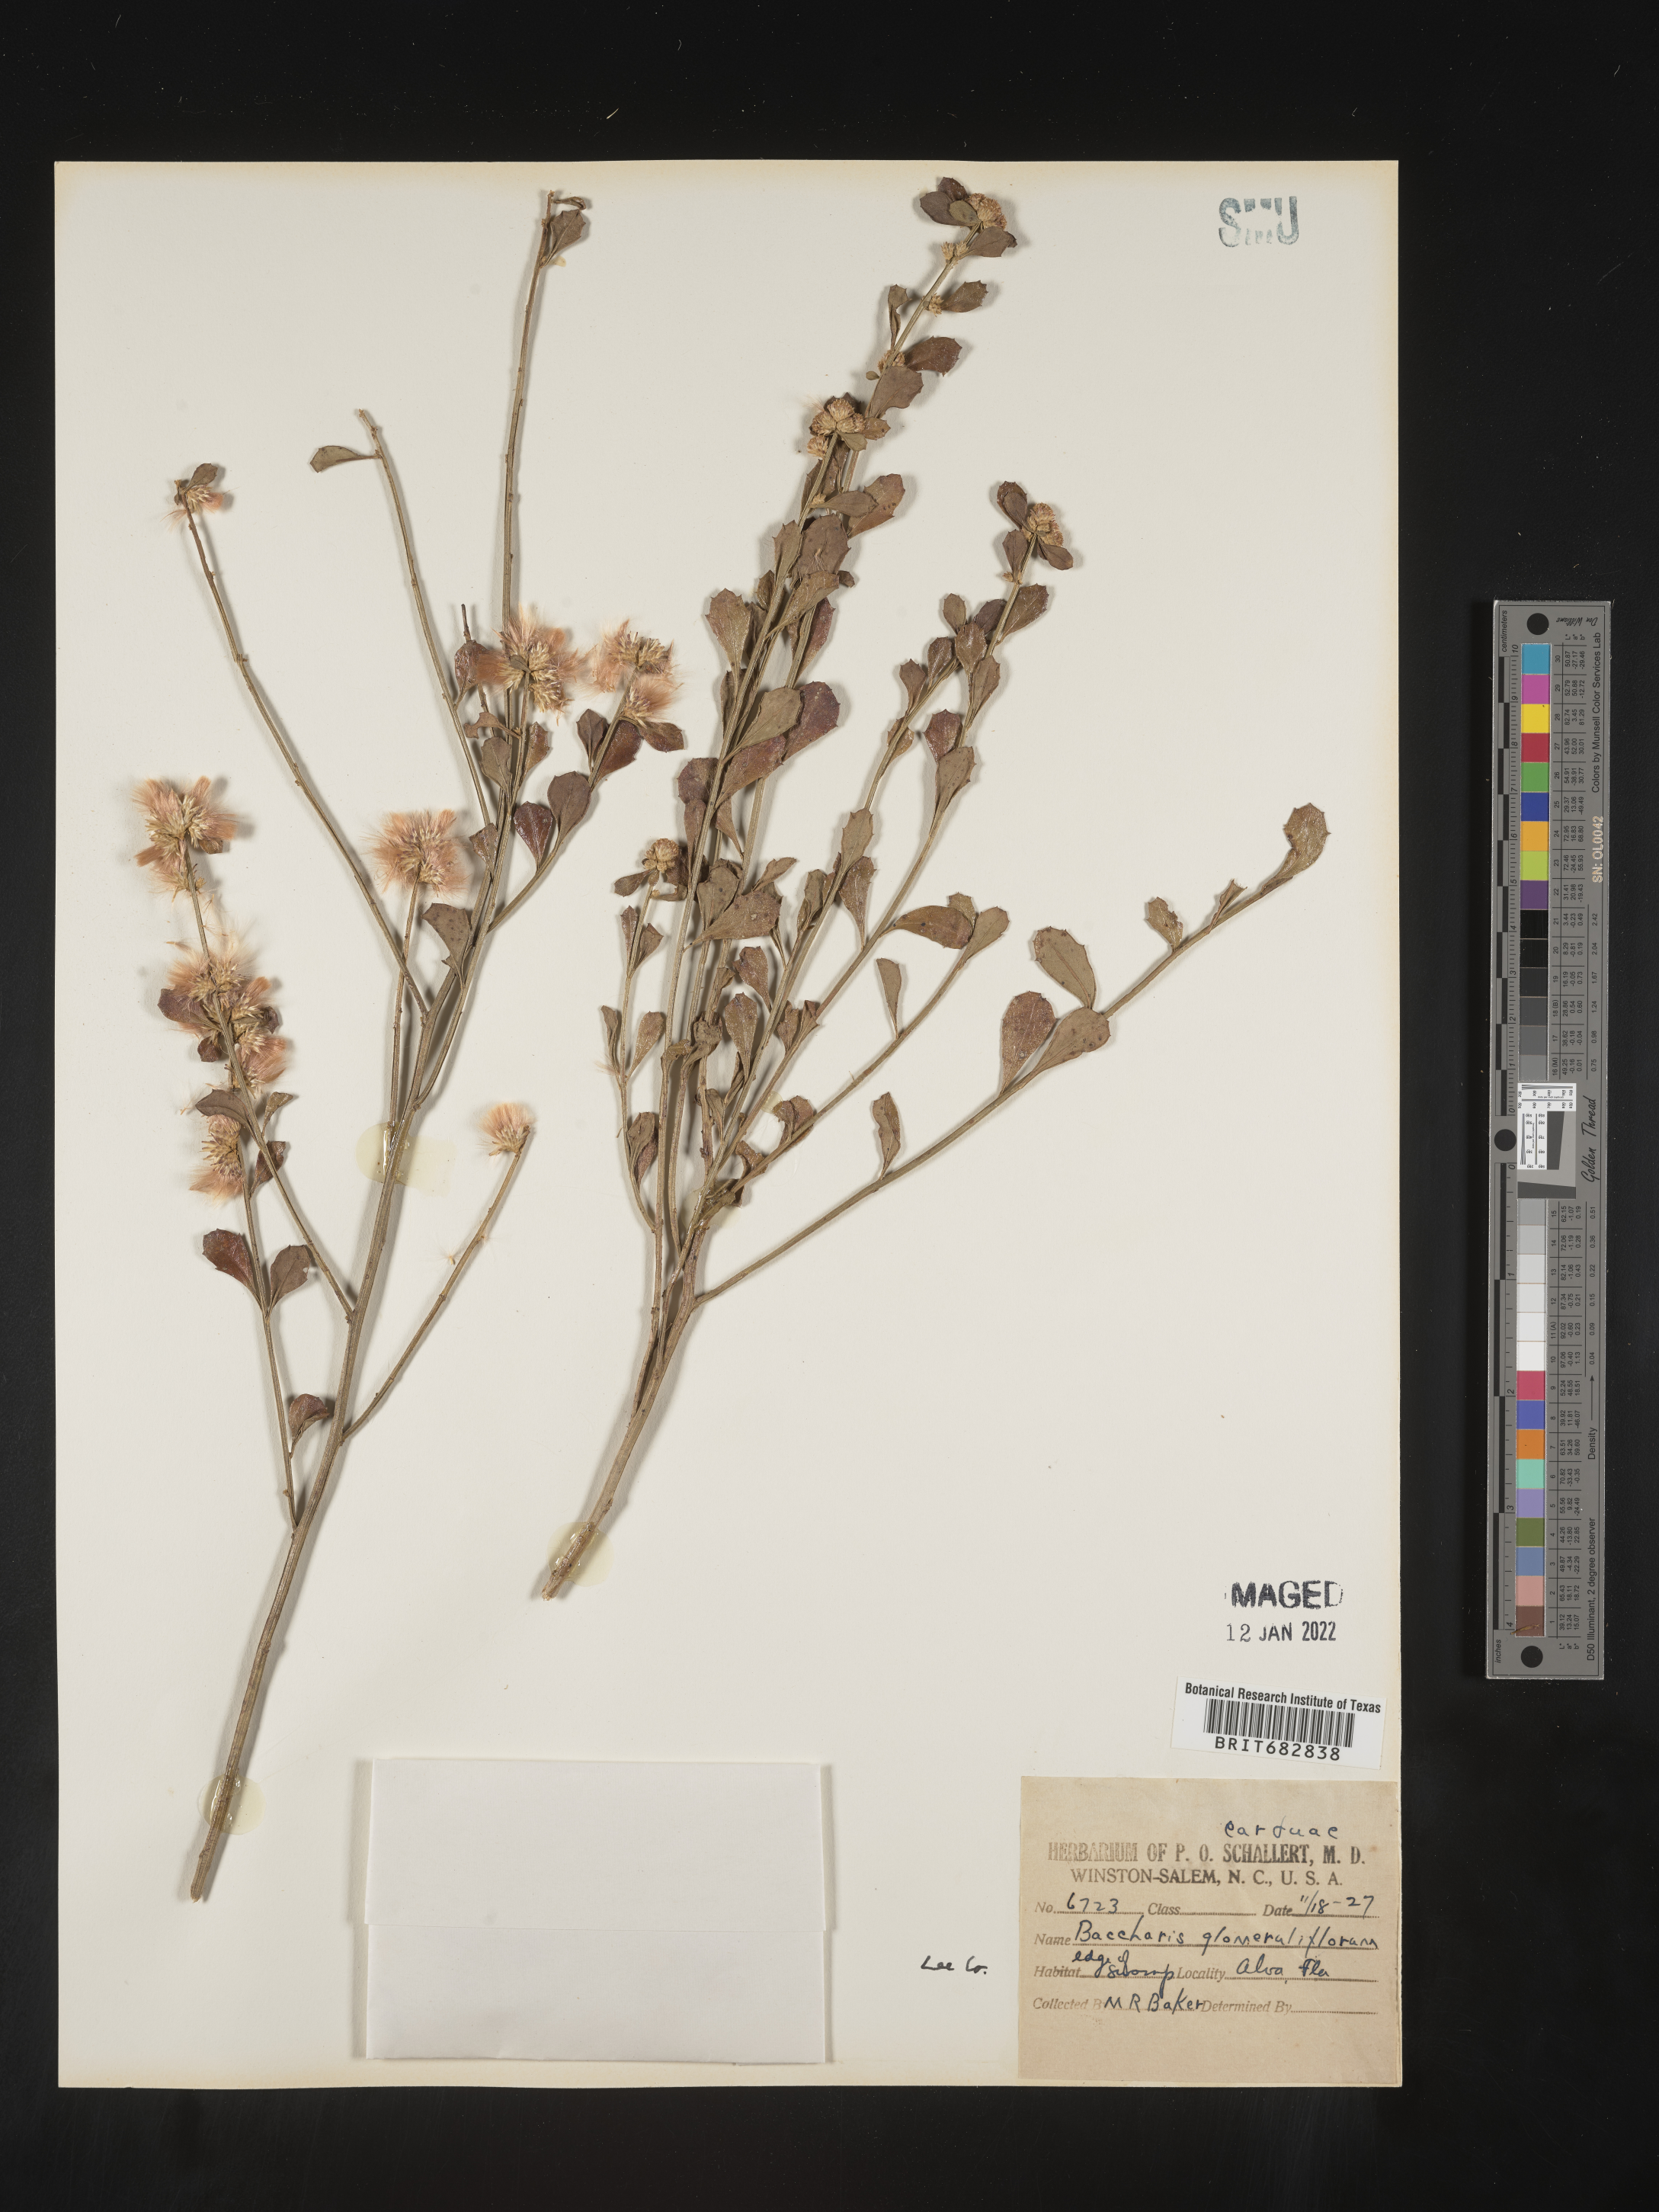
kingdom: Plantae
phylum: Tracheophyta
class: Magnoliopsida
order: Asterales
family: Asteraceae
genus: Baccharis
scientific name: Baccharis glomeruliflora
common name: Silverling groundsel bush
